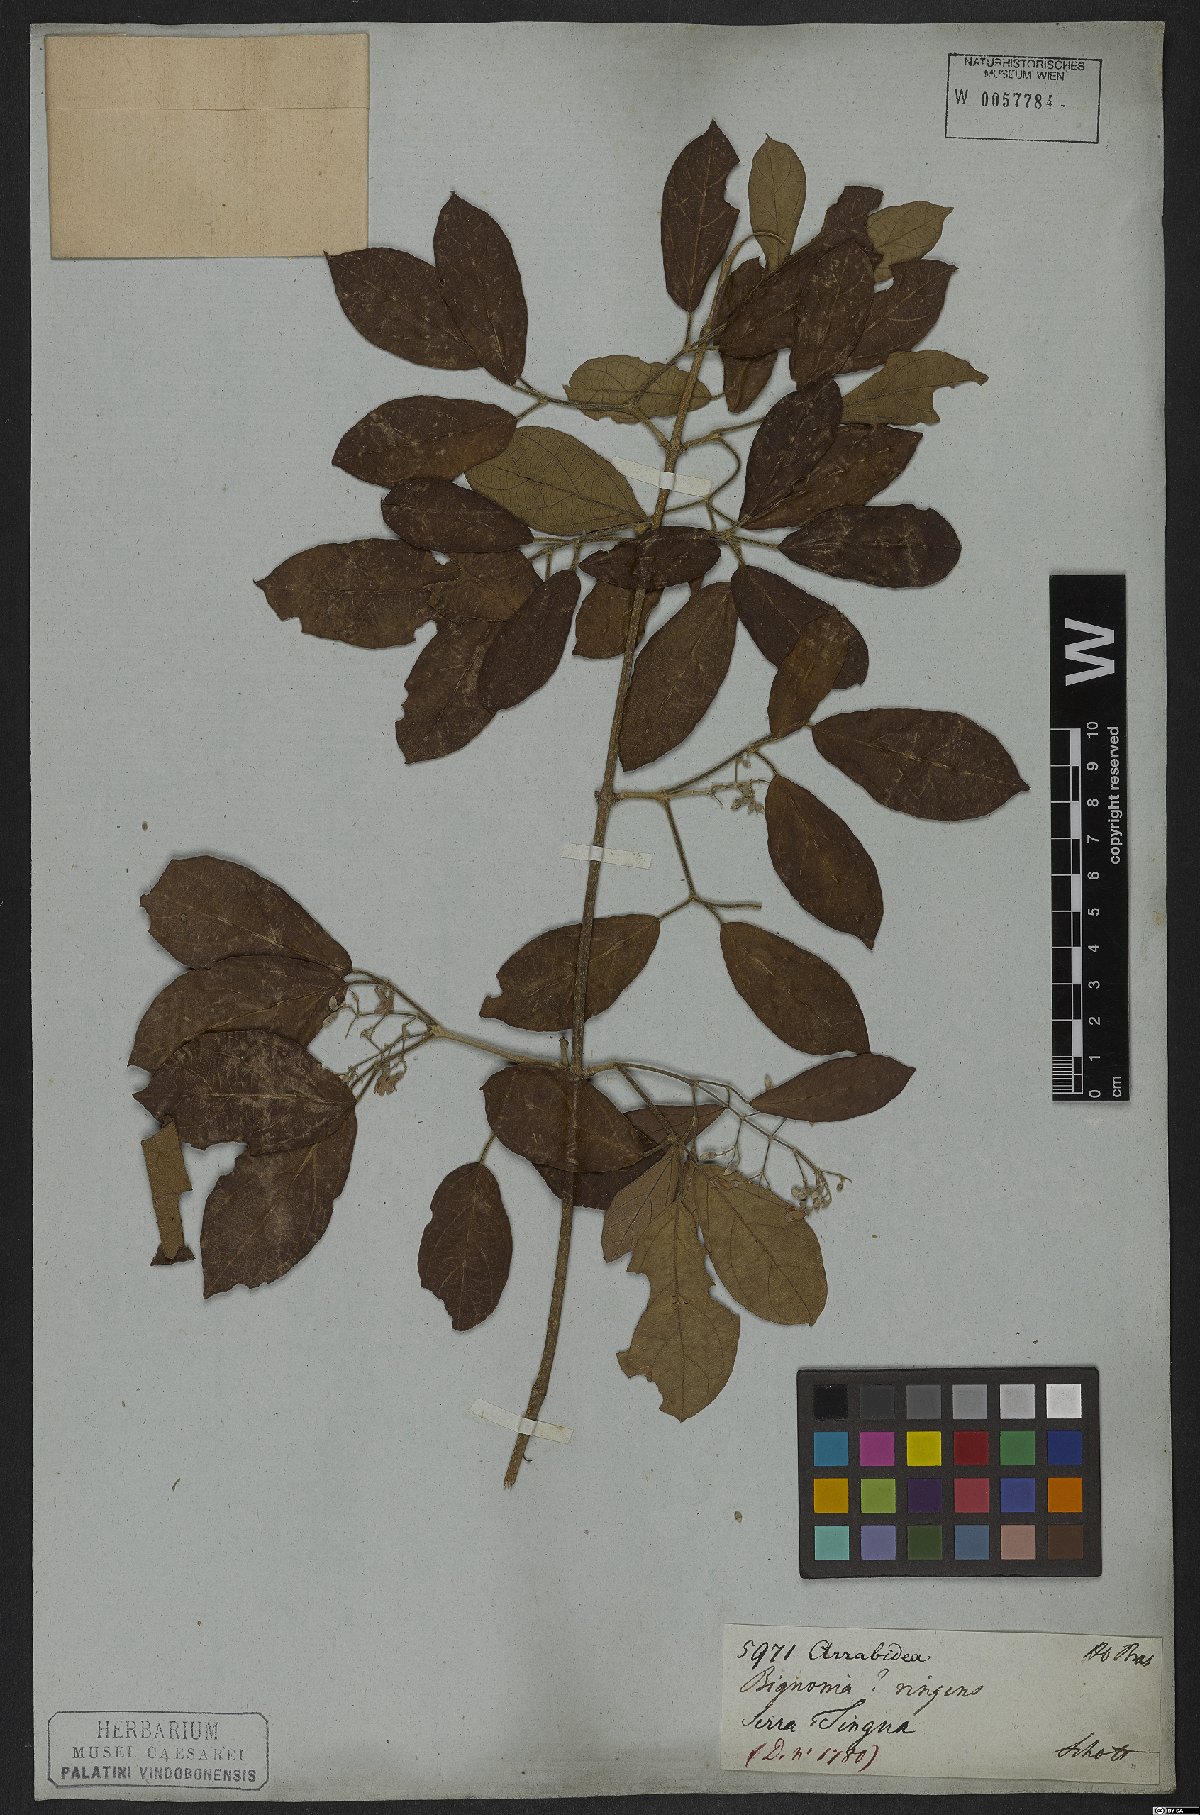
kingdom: Plantae
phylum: Tracheophyta
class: Magnoliopsida
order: Lamiales
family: Bignoniaceae
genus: Tynanthus
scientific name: Tynanthus elegans
